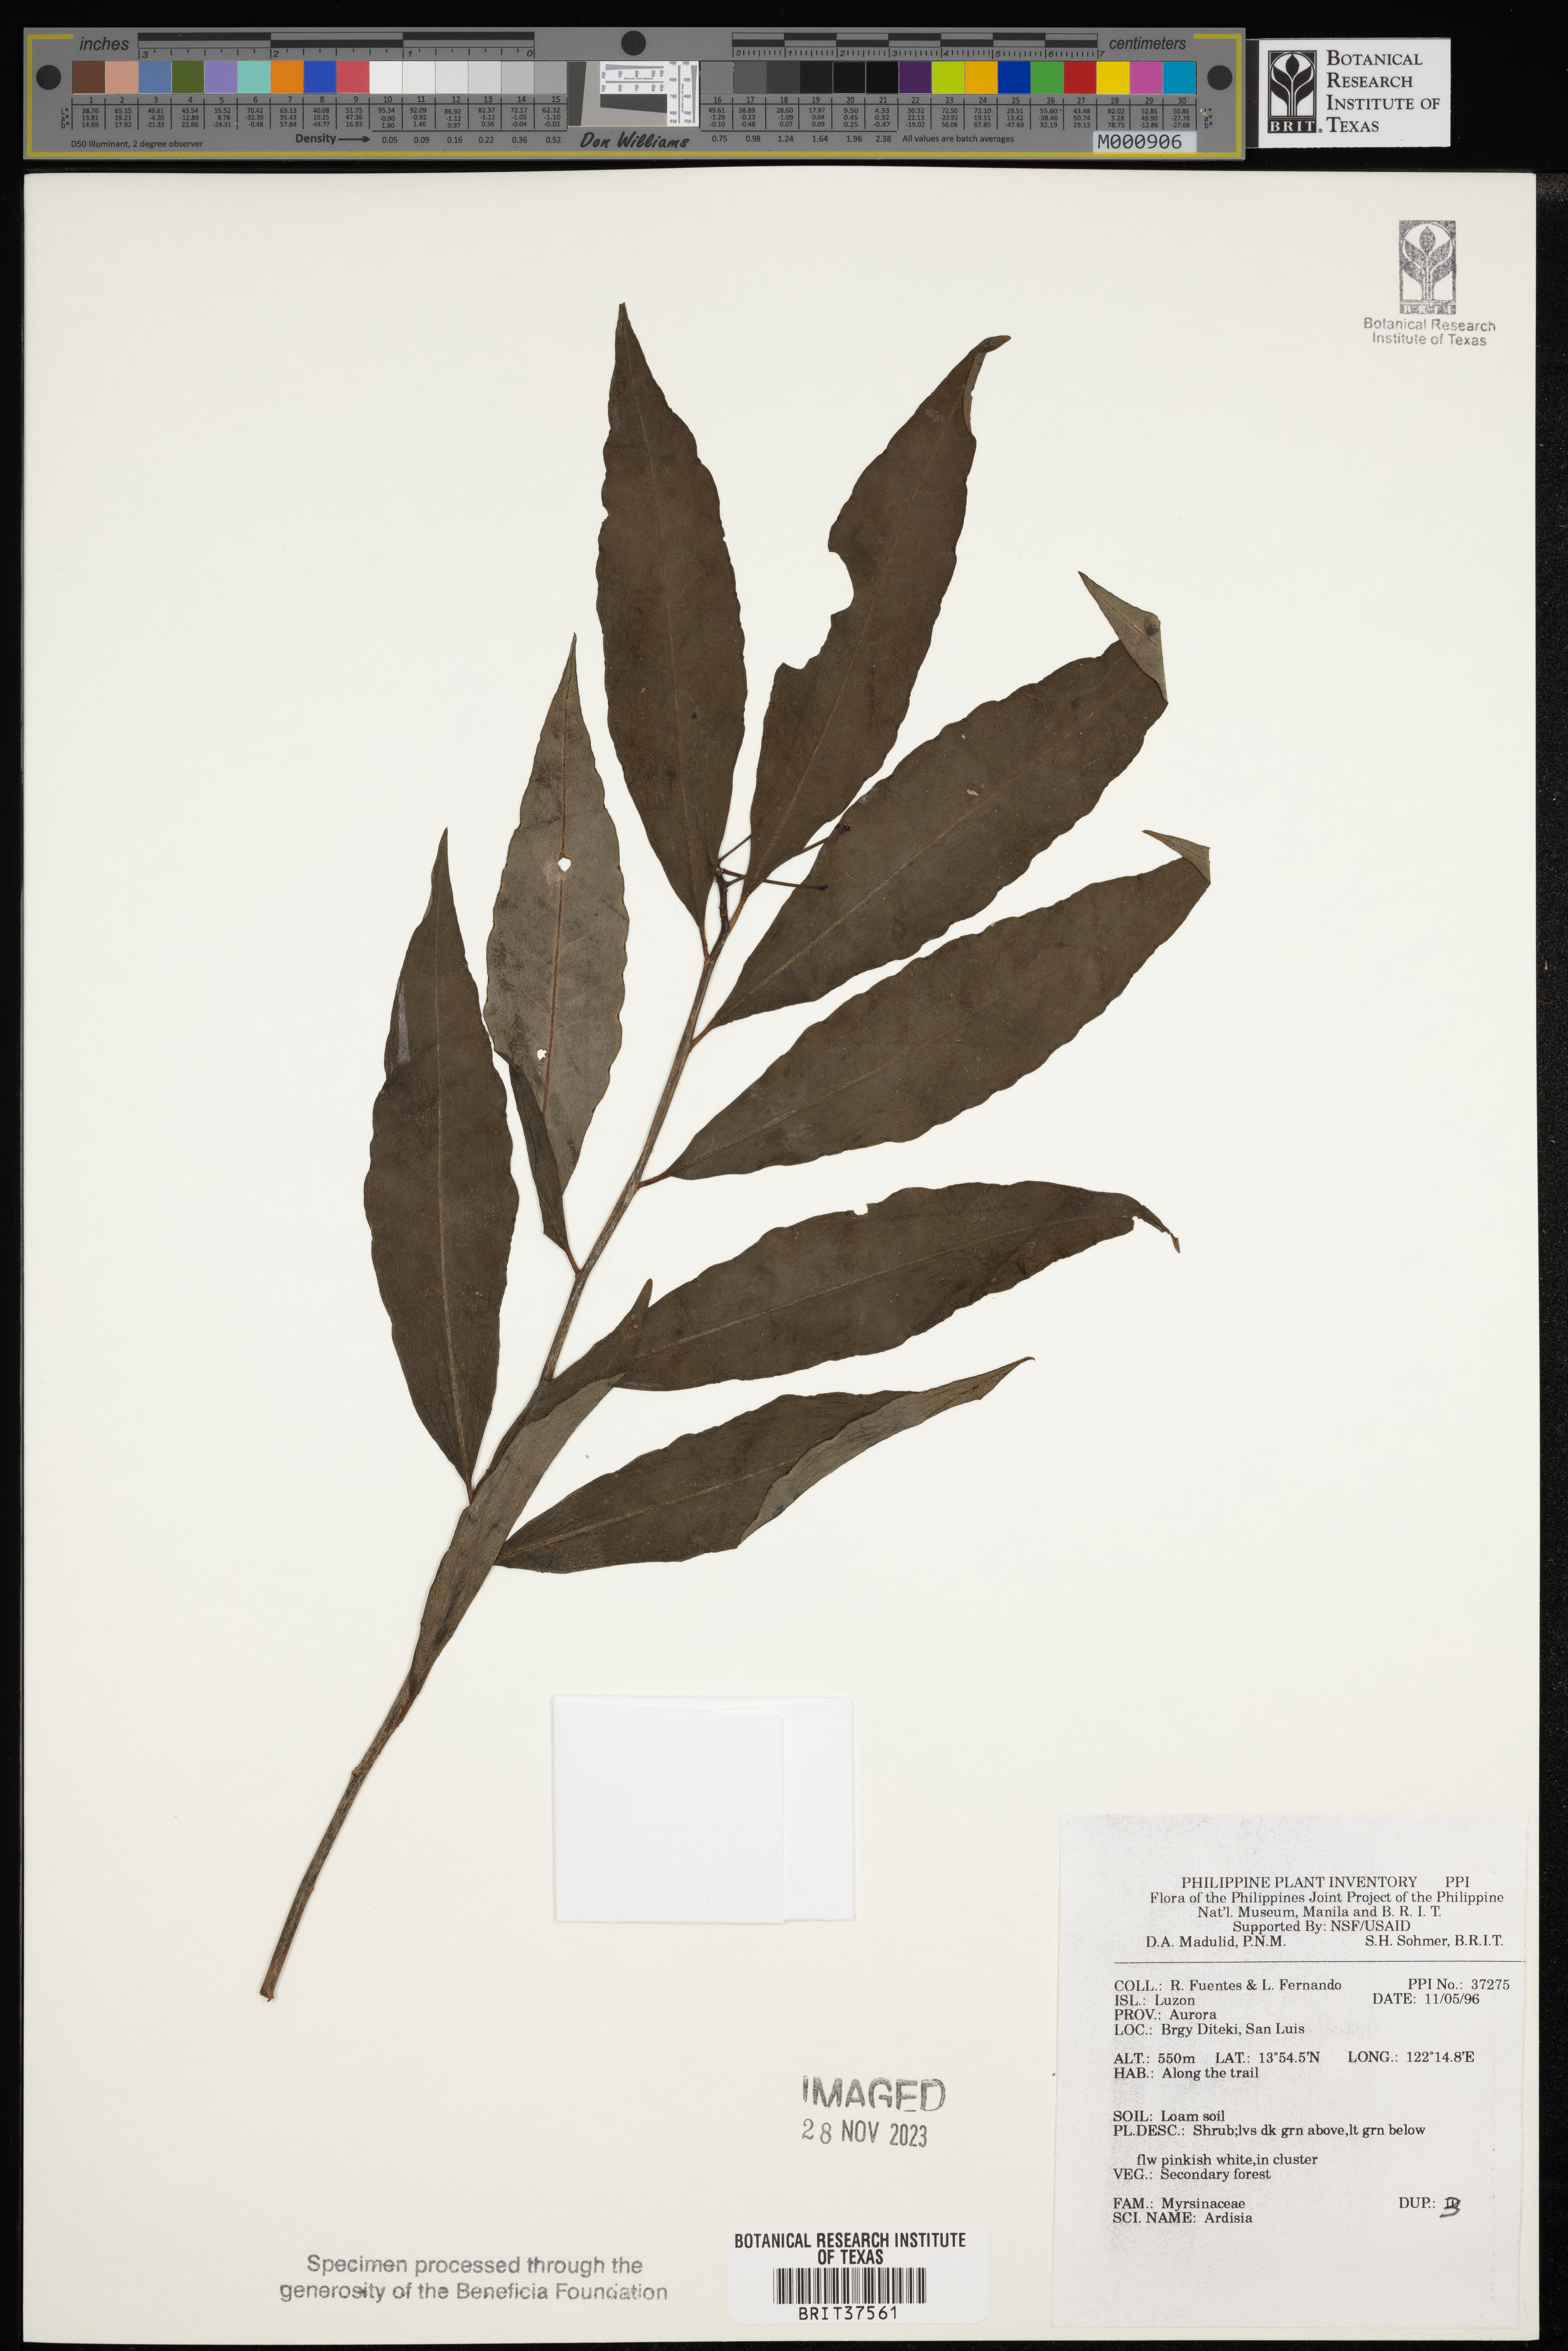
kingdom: Plantae
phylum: Tracheophyta
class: Magnoliopsida
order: Ericales
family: Primulaceae
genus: Ardisia
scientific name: Ardisia
